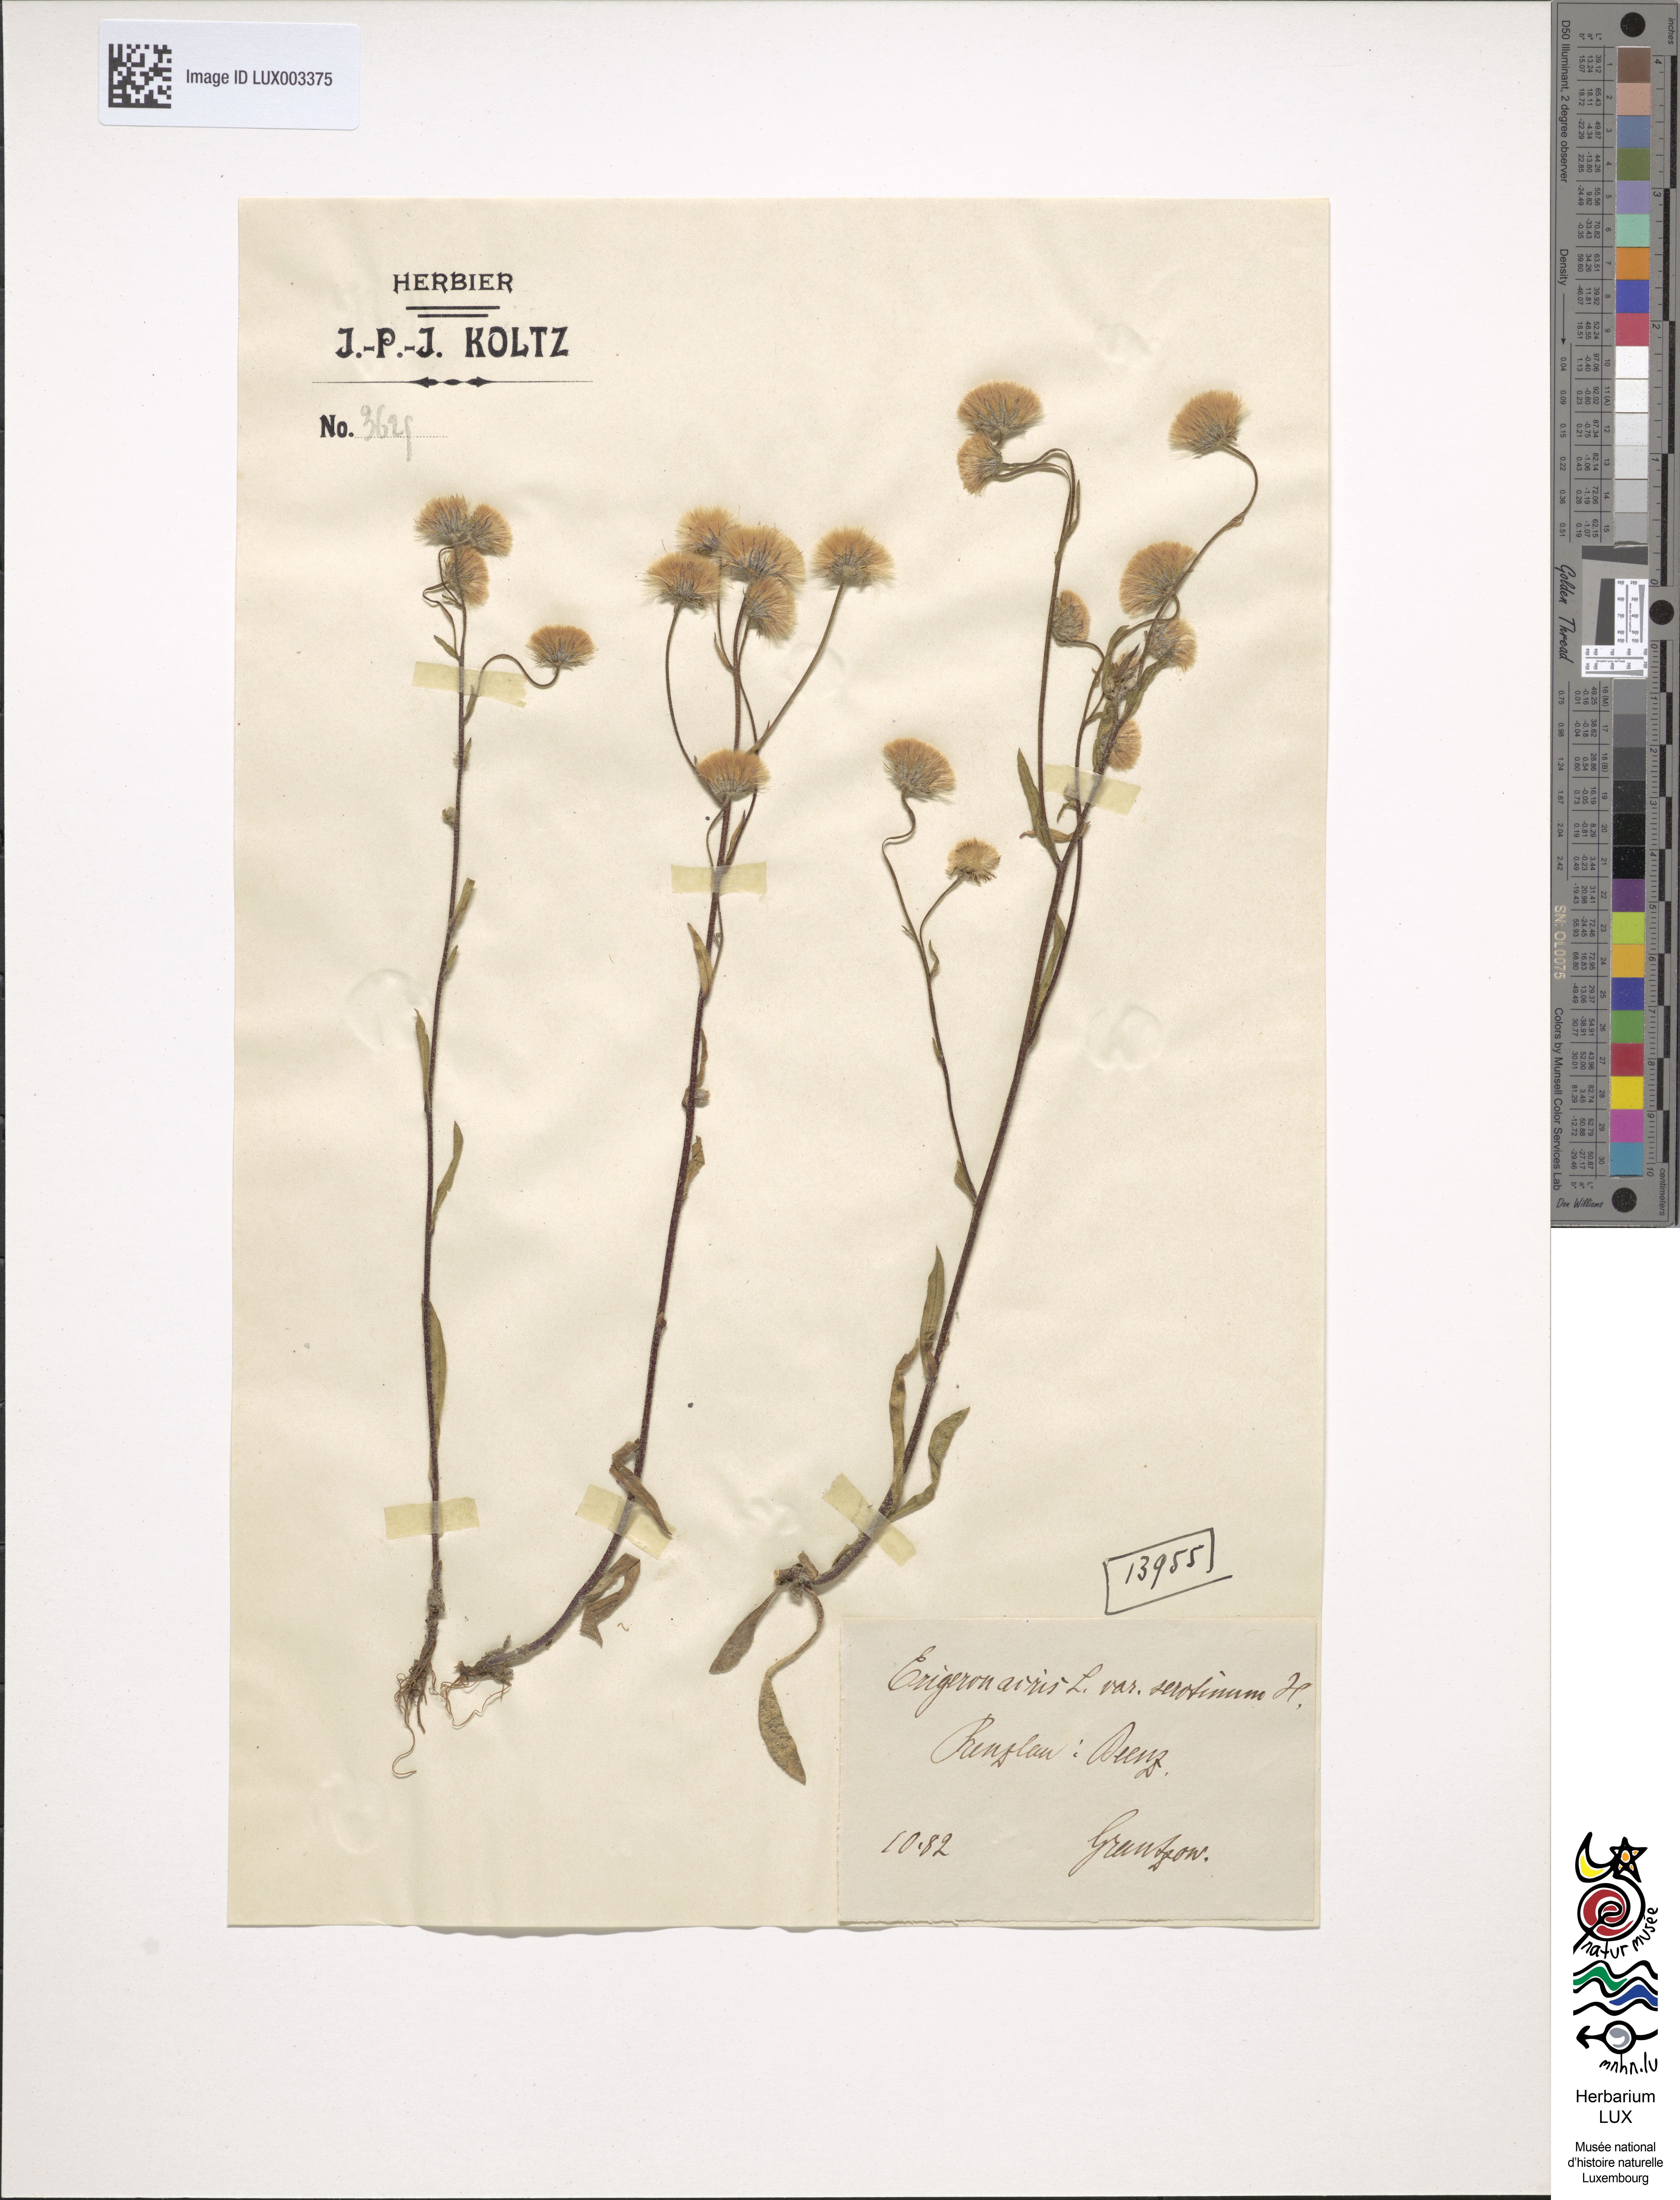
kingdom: Plantae
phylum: Tracheophyta
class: Magnoliopsida
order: Asterales
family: Asteraceae
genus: Erigeron
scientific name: Erigeron acris
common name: Blue fleabane
